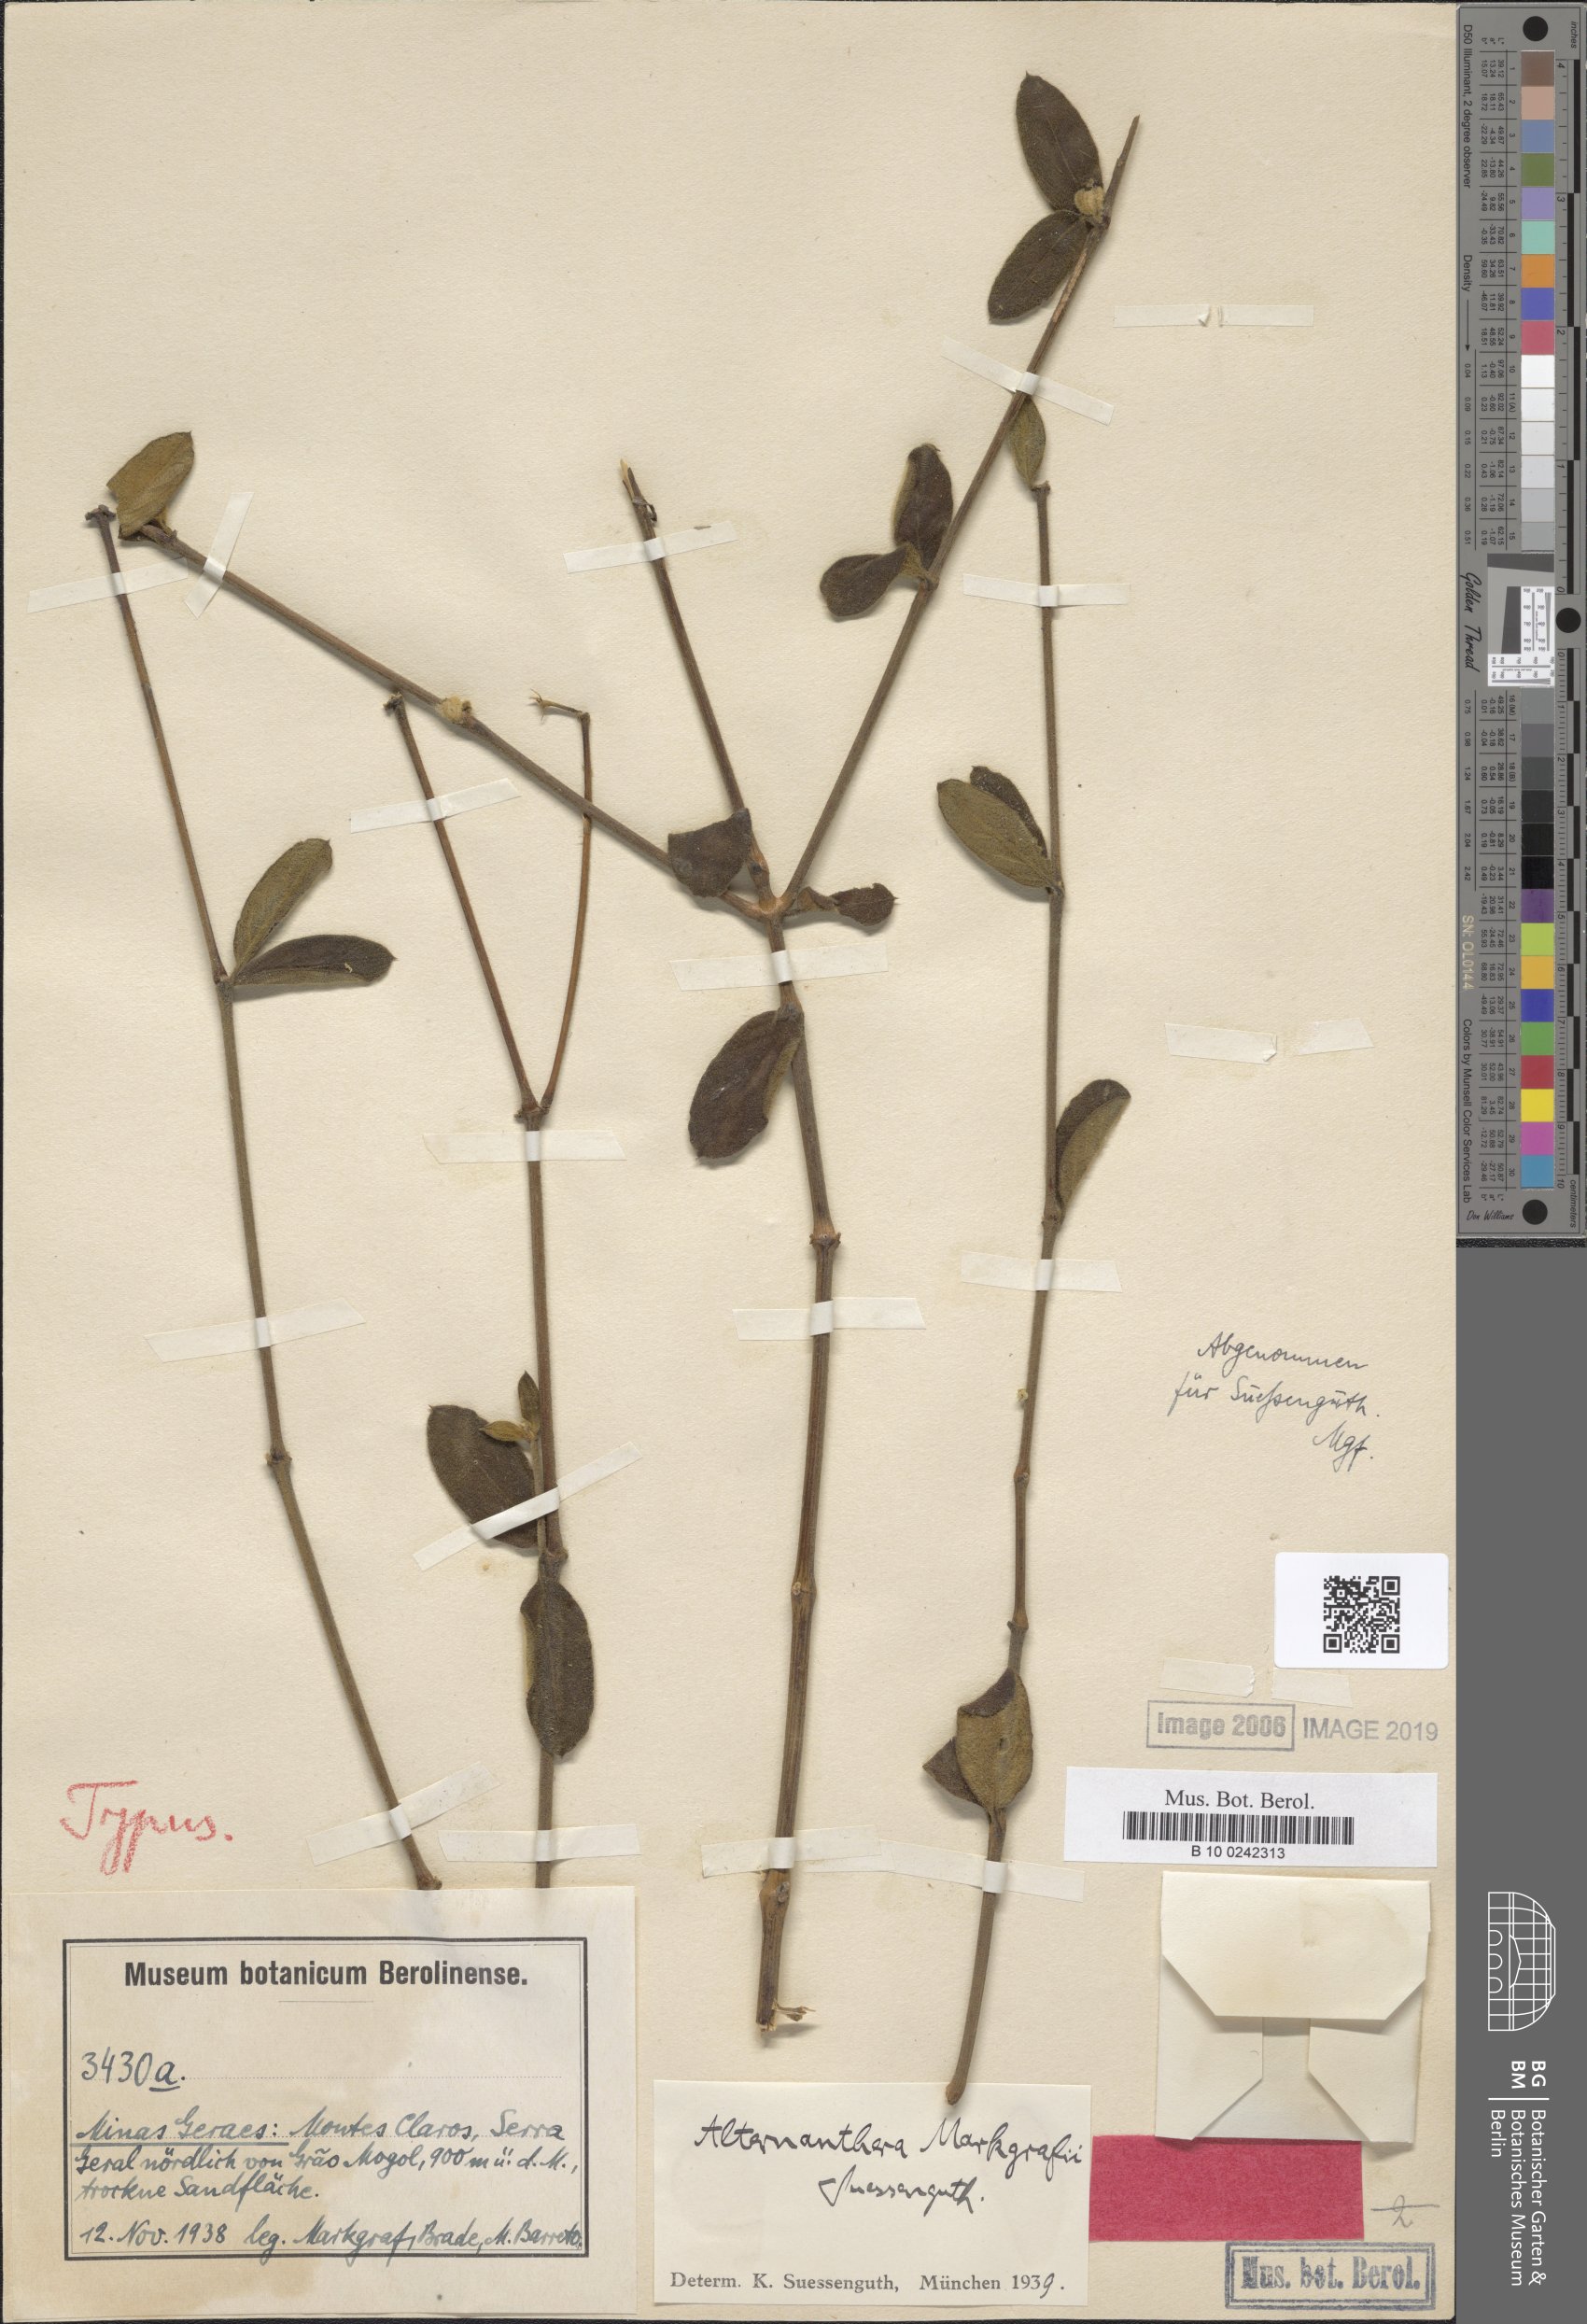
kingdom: Plantae
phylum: Tracheophyta
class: Magnoliopsida
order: Caryophyllales
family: Amaranthaceae
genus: Alternanthera
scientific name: Alternanthera markgrafii
